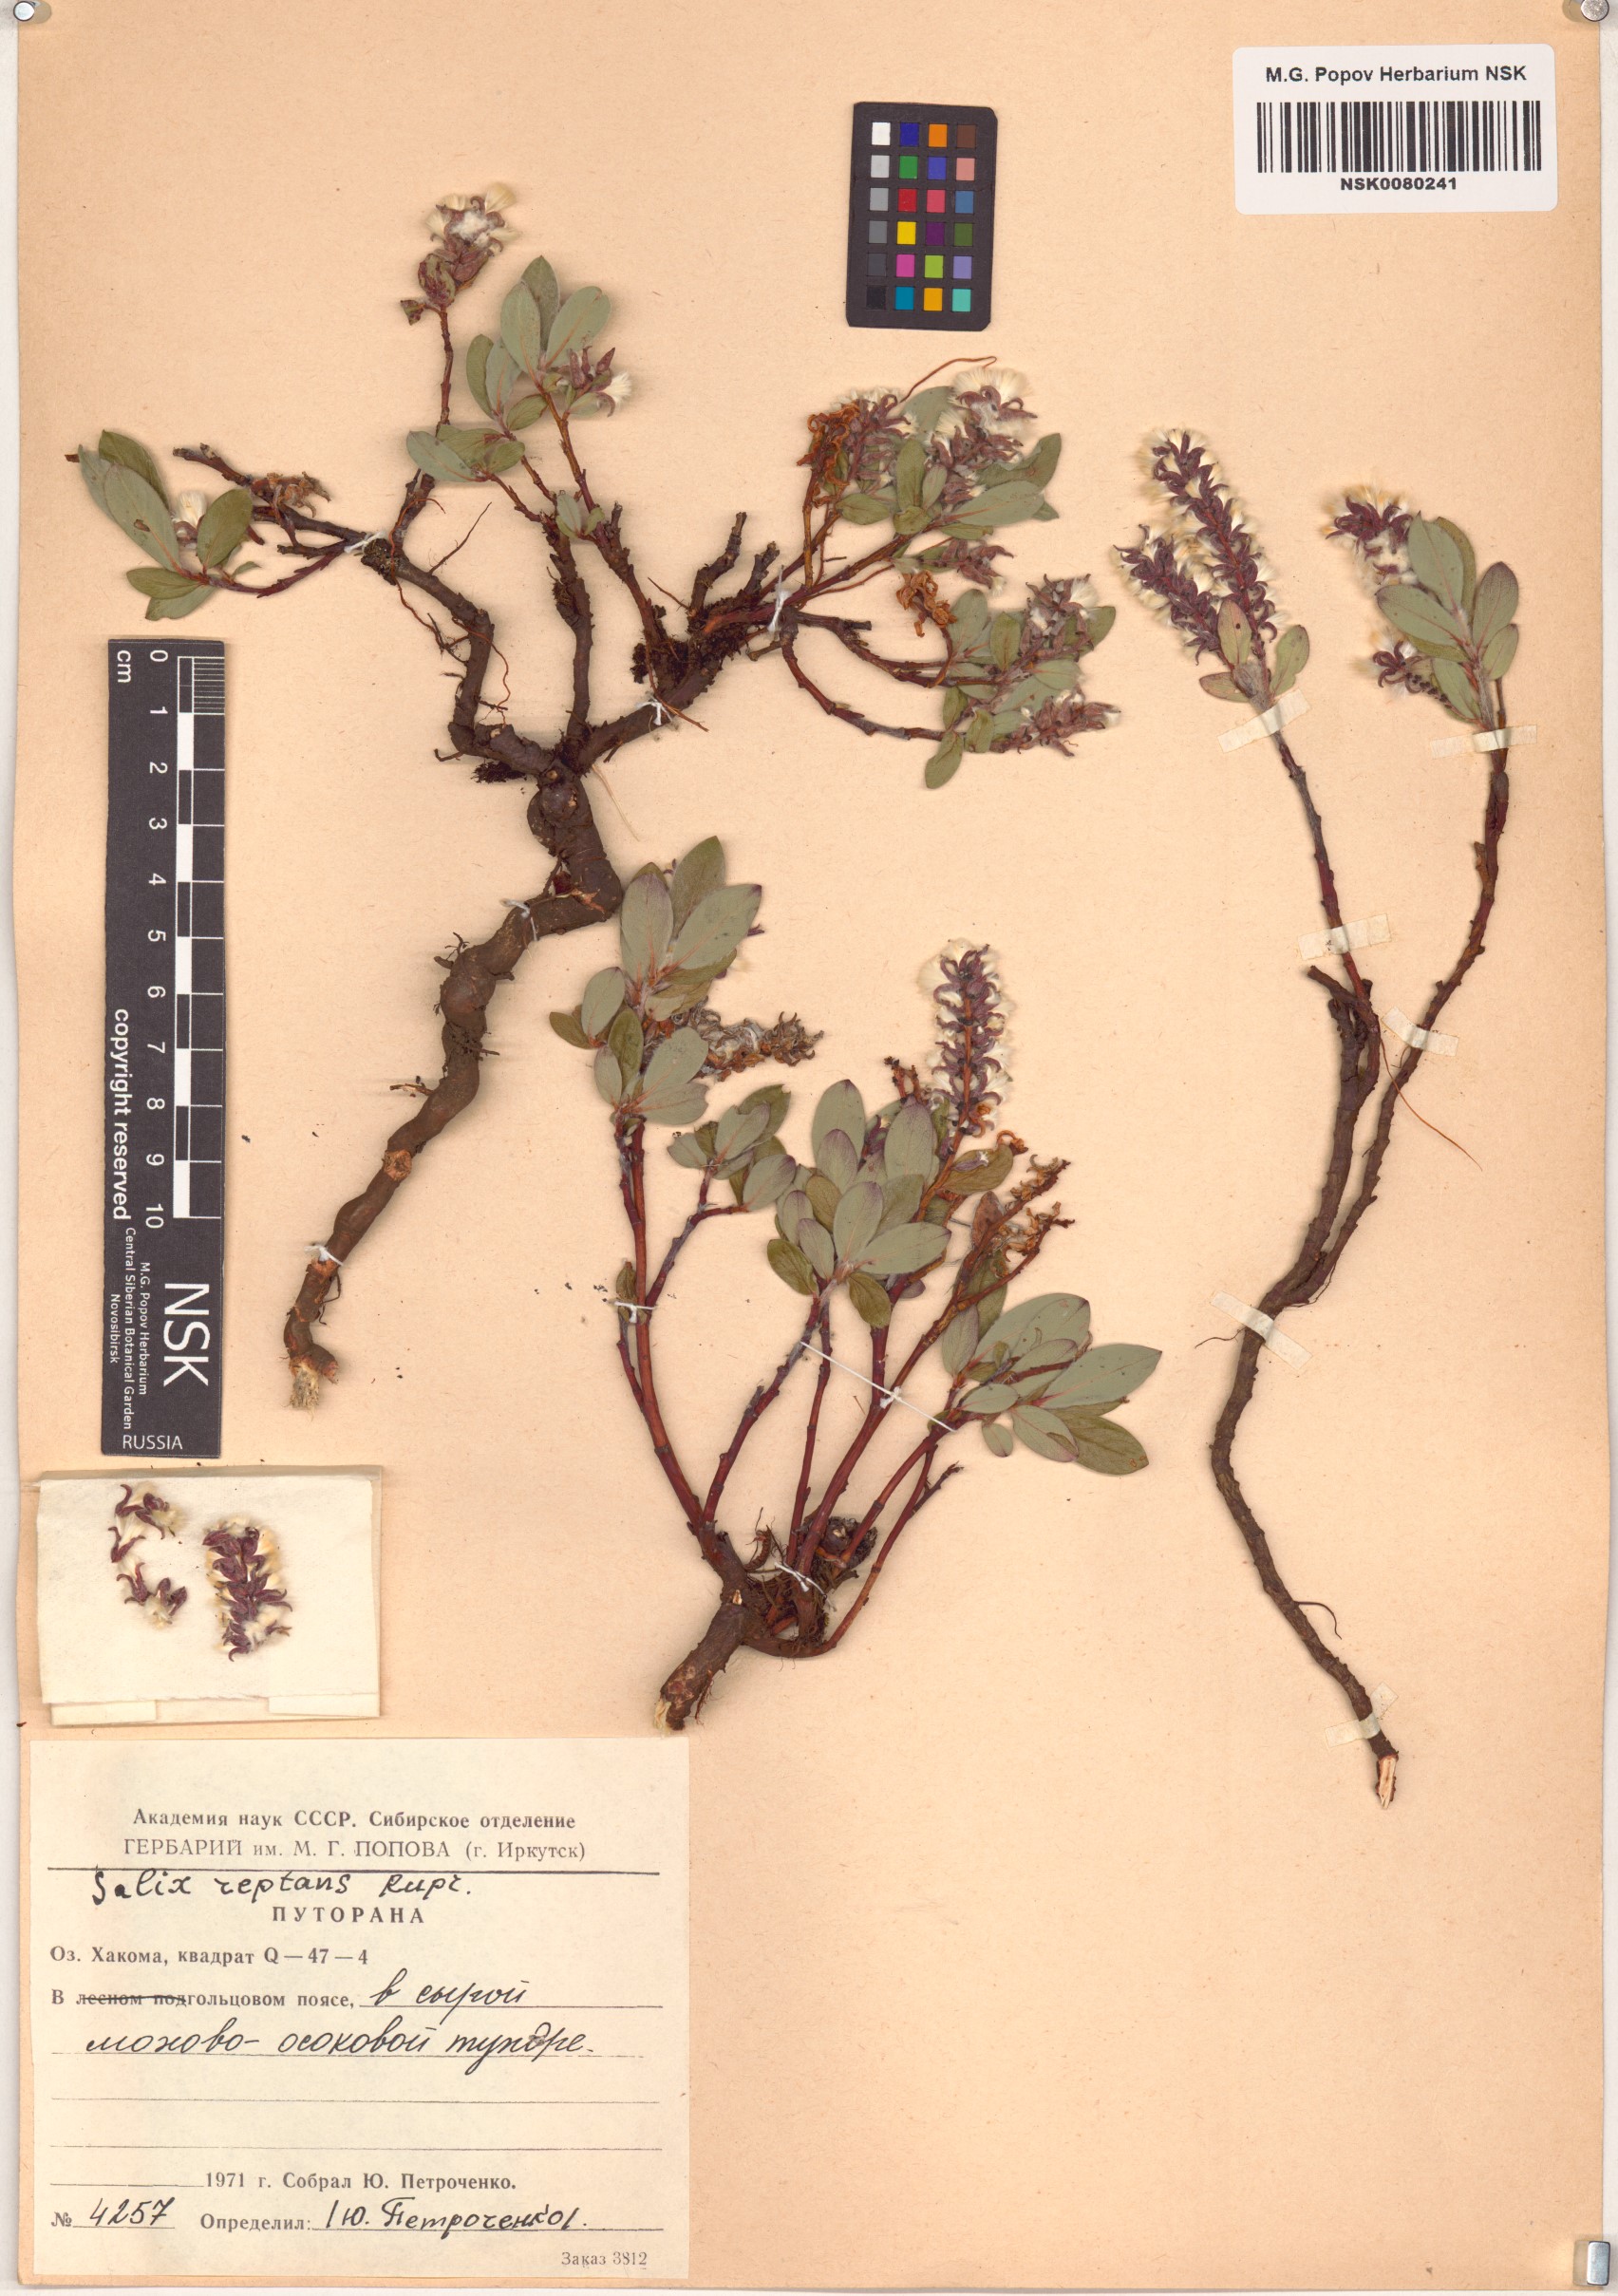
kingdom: Plantae
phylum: Tracheophyta
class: Magnoliopsida
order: Malpighiales
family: Salicaceae
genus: Salix
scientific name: Salix reptans
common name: Arctic creeping willow
